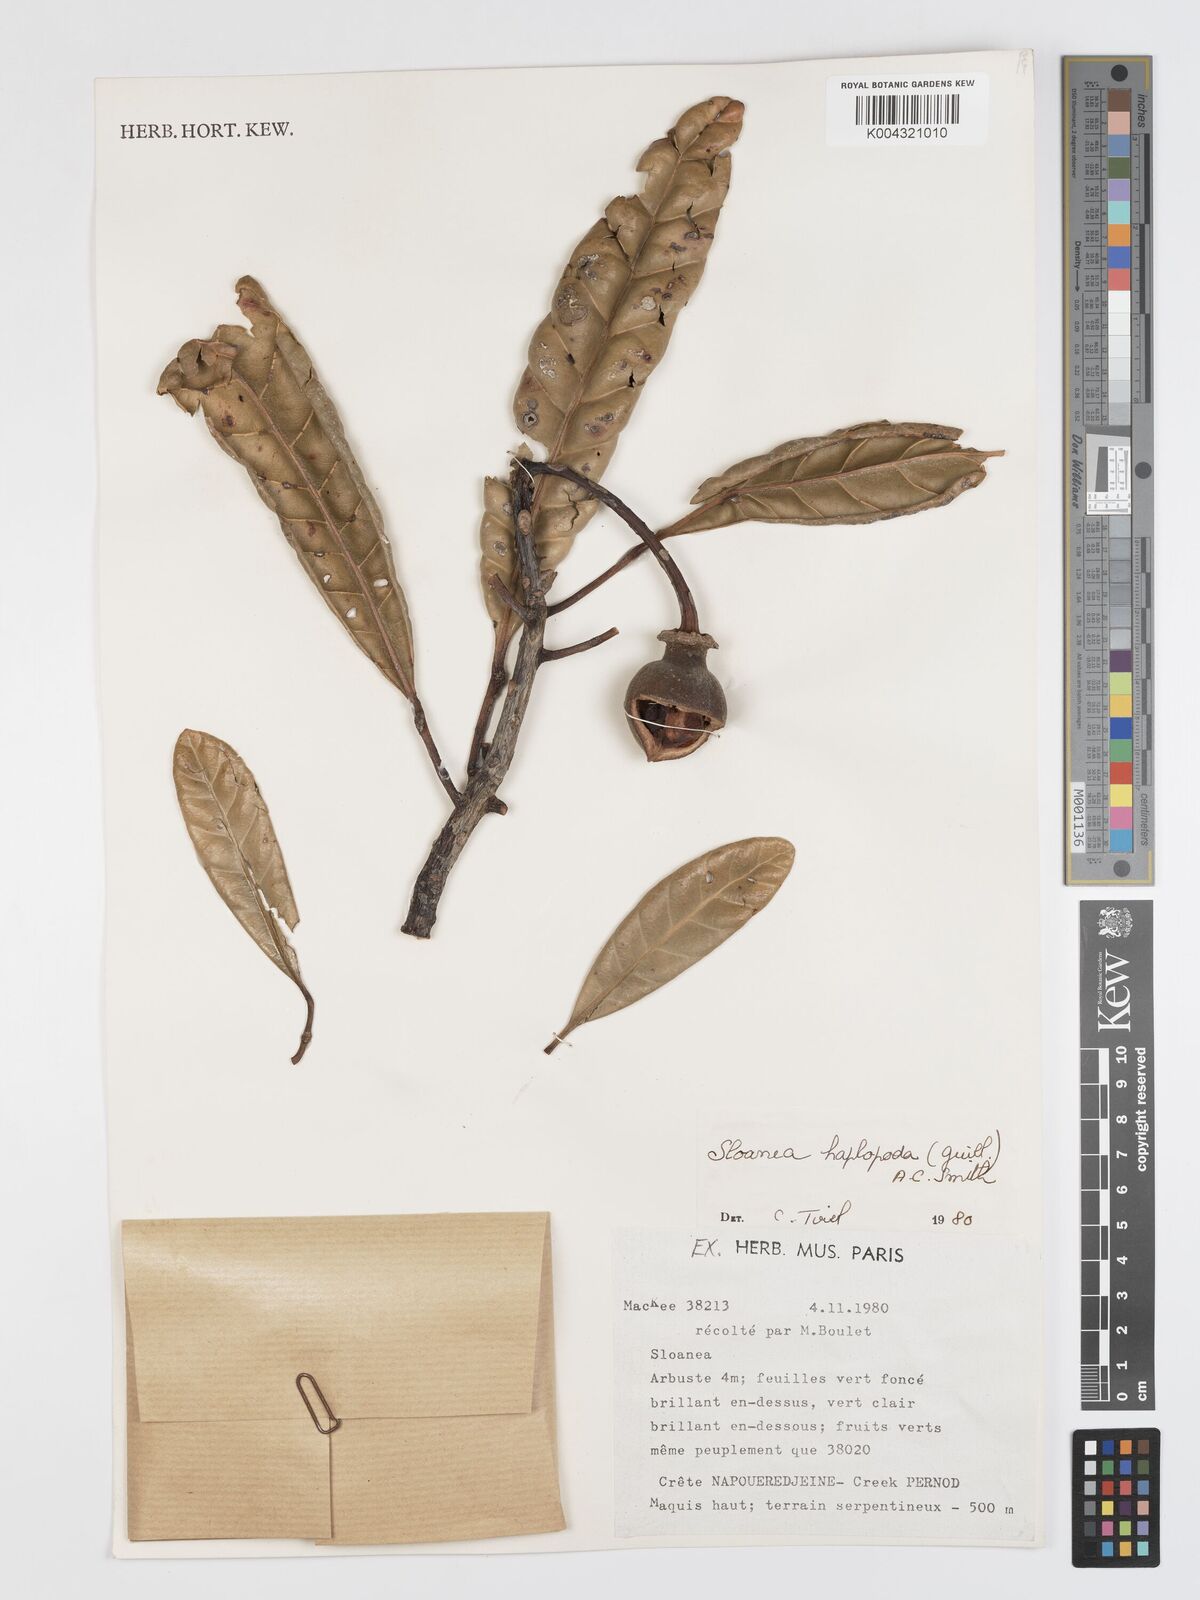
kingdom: Plantae
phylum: Tracheophyta
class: Magnoliopsida
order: Oxalidales
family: Elaeocarpaceae
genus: Sloanea
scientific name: Sloanea haplopoda
